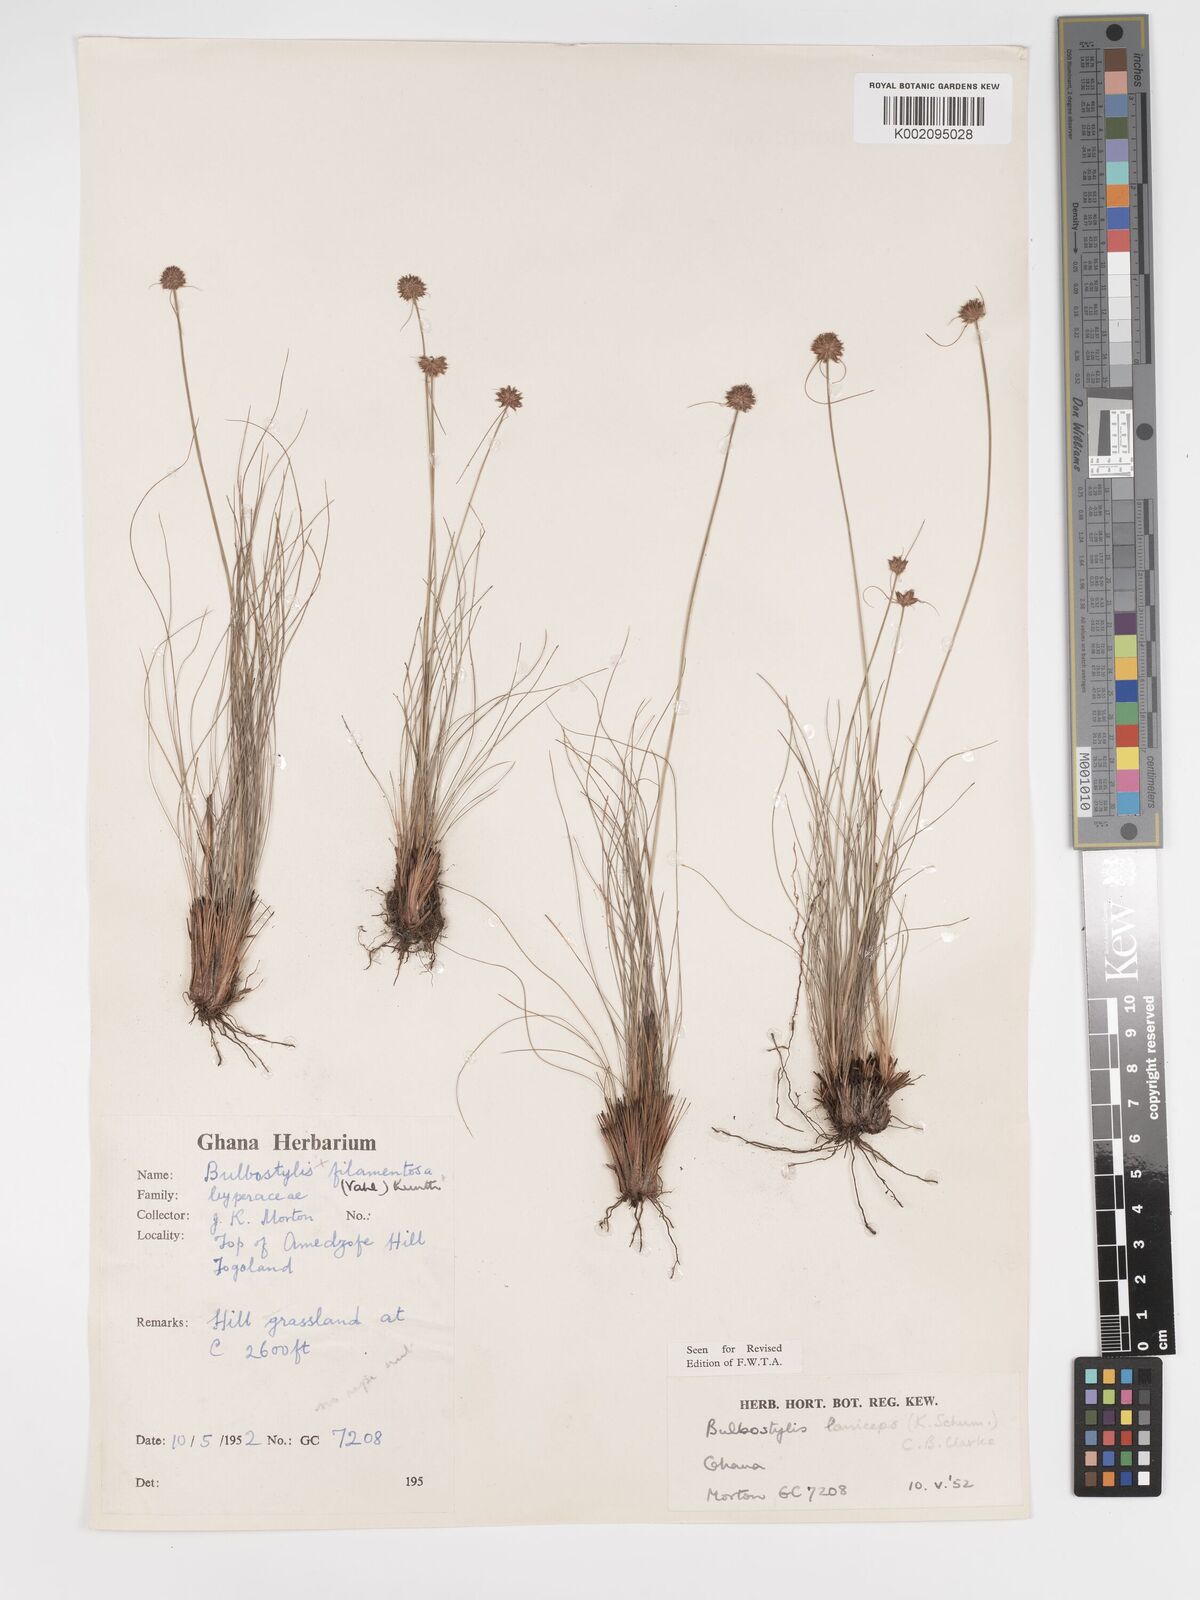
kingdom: Plantae
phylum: Tracheophyta
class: Liliopsida
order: Poales
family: Cyperaceae
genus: Bulbostylis
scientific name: Bulbostylis laniceps
